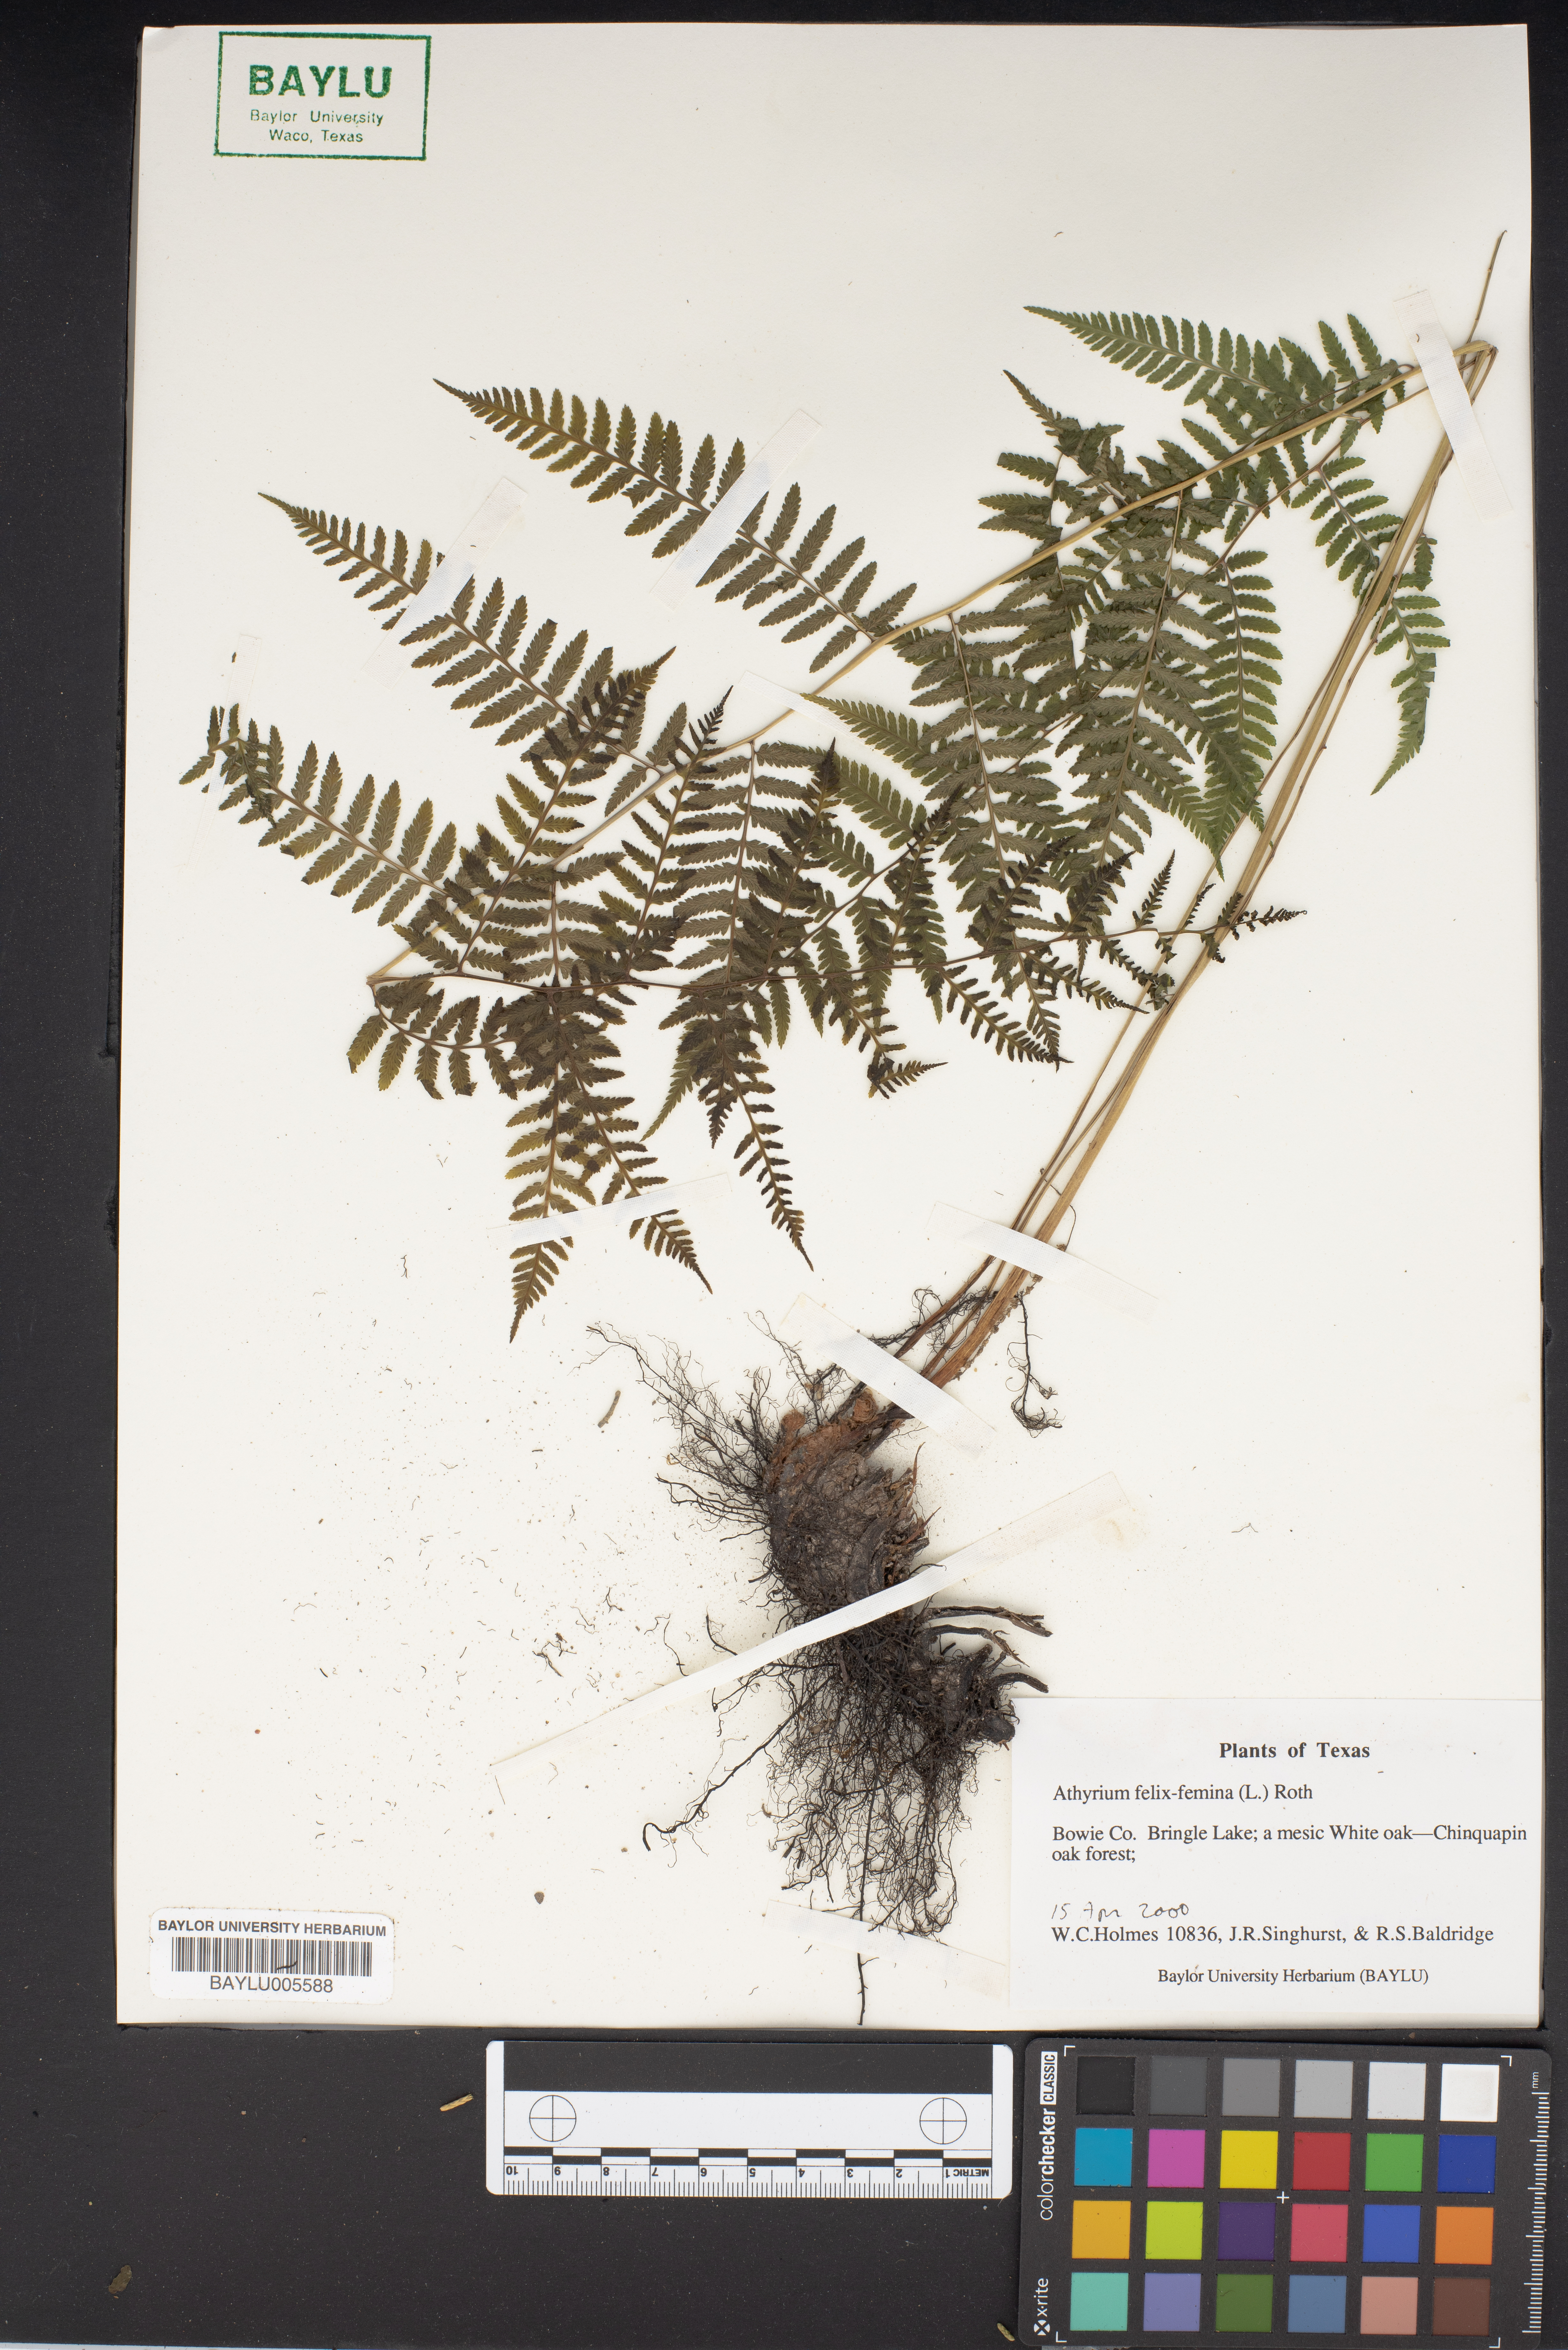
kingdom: Plantae
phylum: Tracheophyta
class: Polypodiopsida
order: Polypodiales
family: Athyriaceae
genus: Athyrium
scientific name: Athyrium filix-femina
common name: Lady fern
